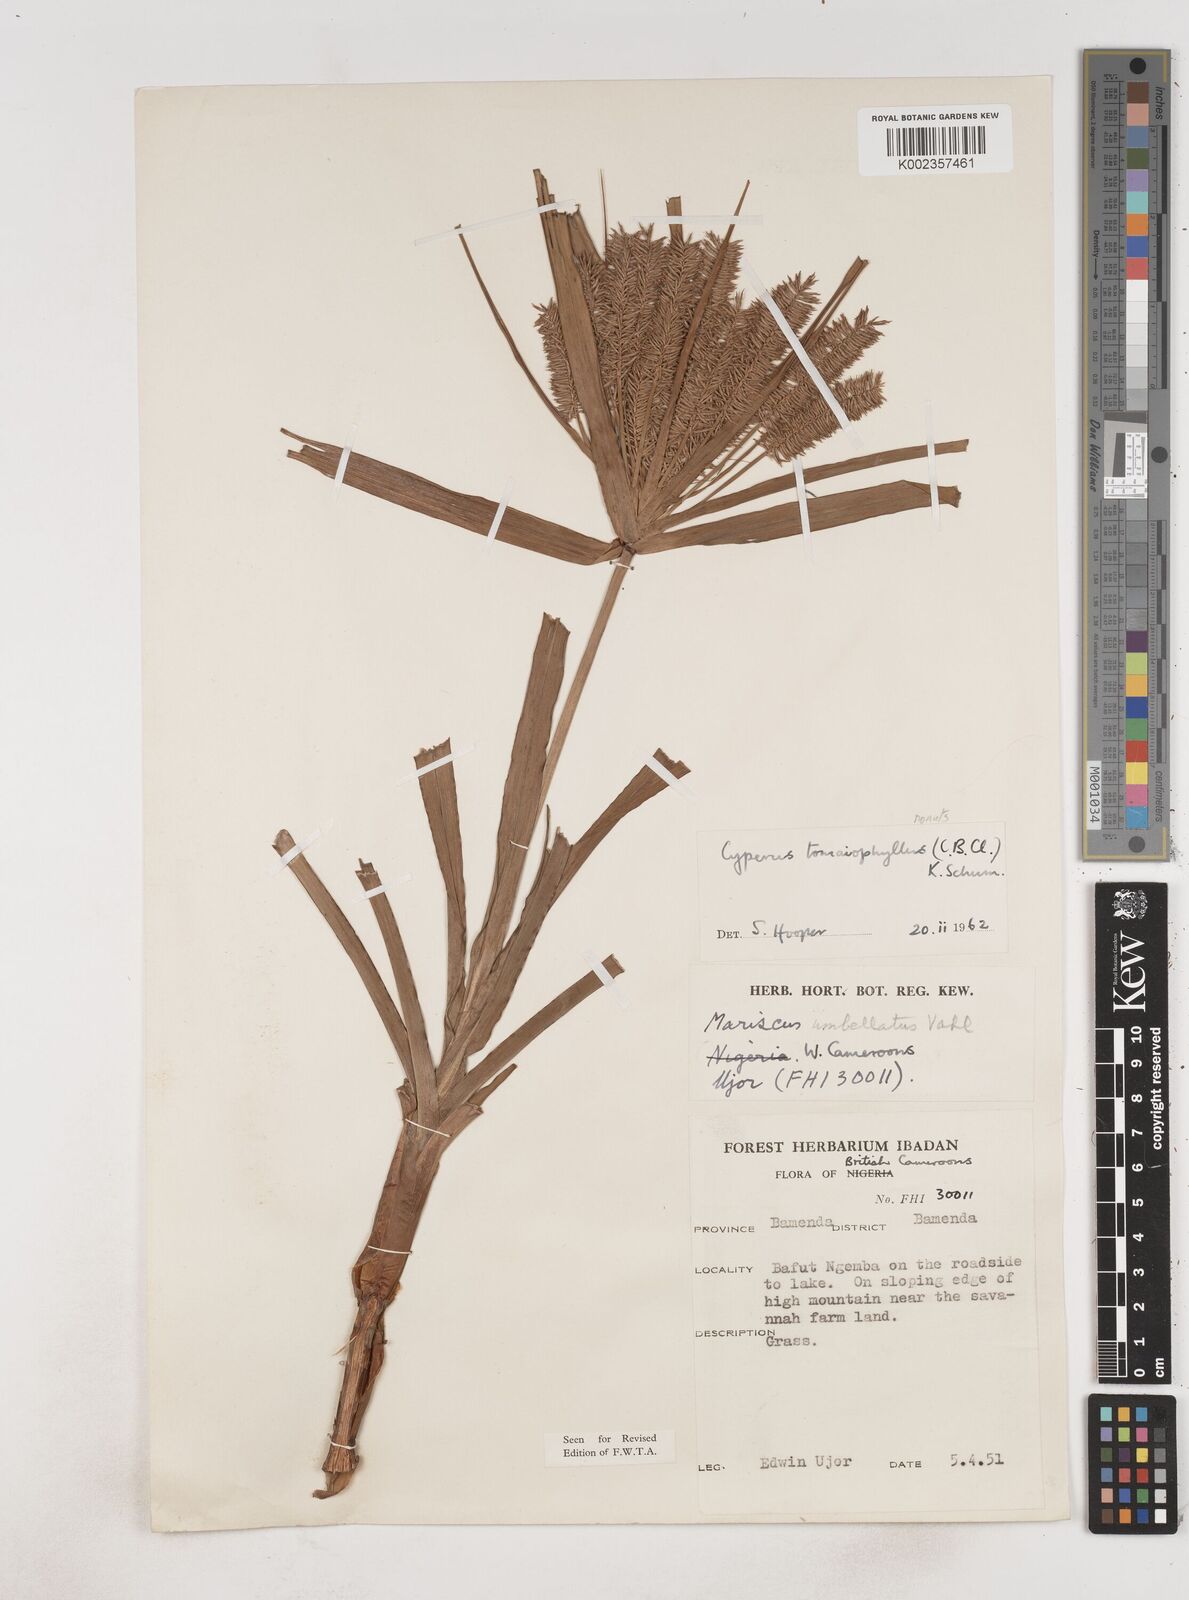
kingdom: Plantae
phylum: Tracheophyta
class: Liliopsida
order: Poales
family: Cyperaceae
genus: Cyperus
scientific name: Cyperus tomaiophyllus
